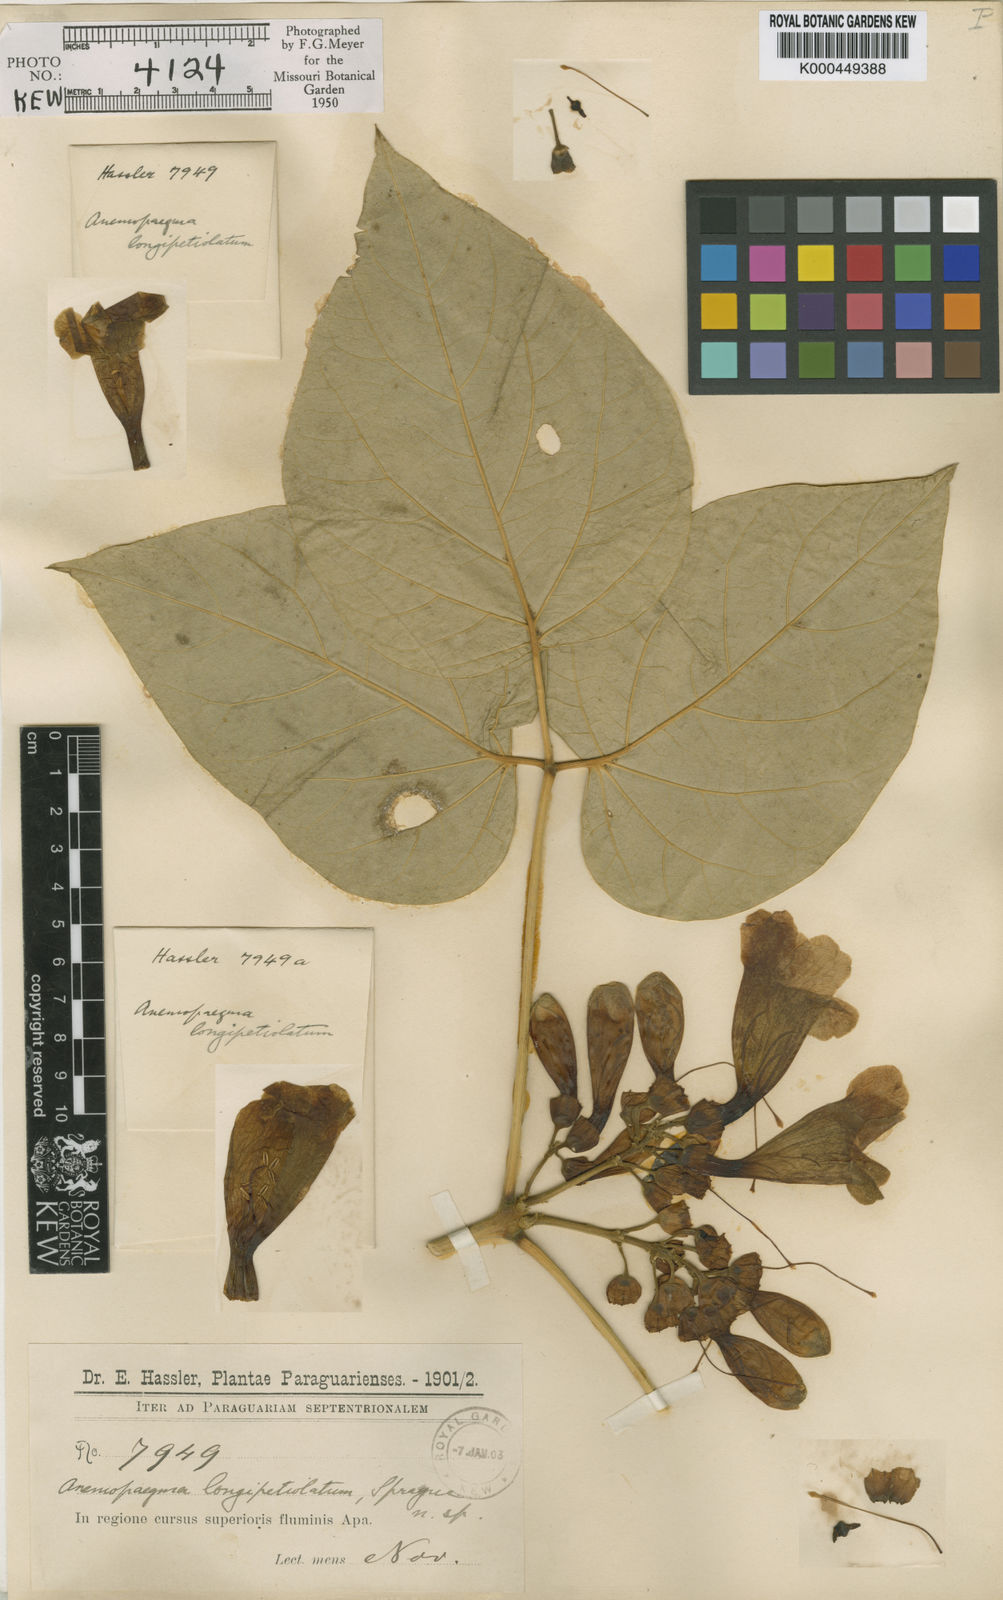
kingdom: Plantae
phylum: Tracheophyta
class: Magnoliopsida
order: Lamiales
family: Bignoniaceae
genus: Anemopaegma
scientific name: Anemopaegma longipetiolatum
